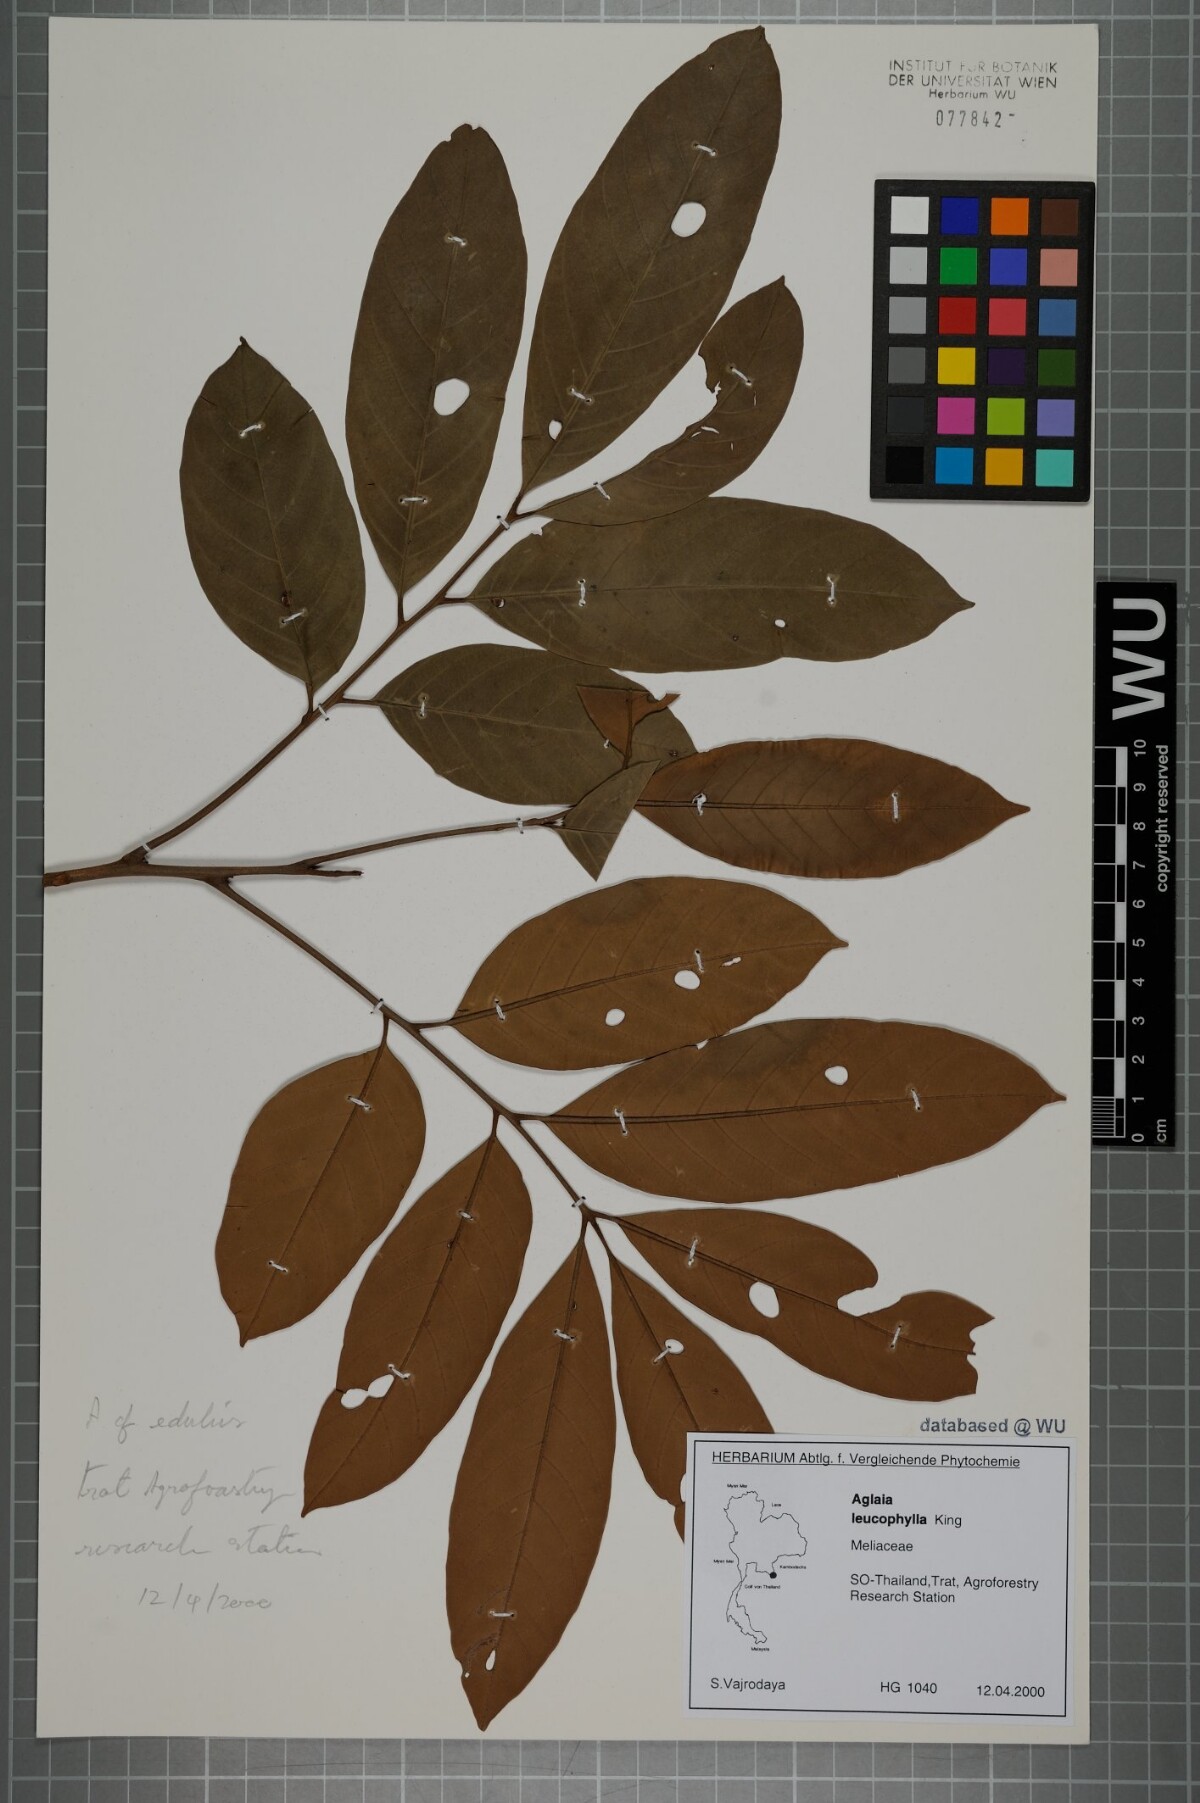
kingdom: Plantae
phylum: Tracheophyta
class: Magnoliopsida
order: Sapindales
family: Meliaceae
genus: Aglaia
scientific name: Aglaia leucophylla
